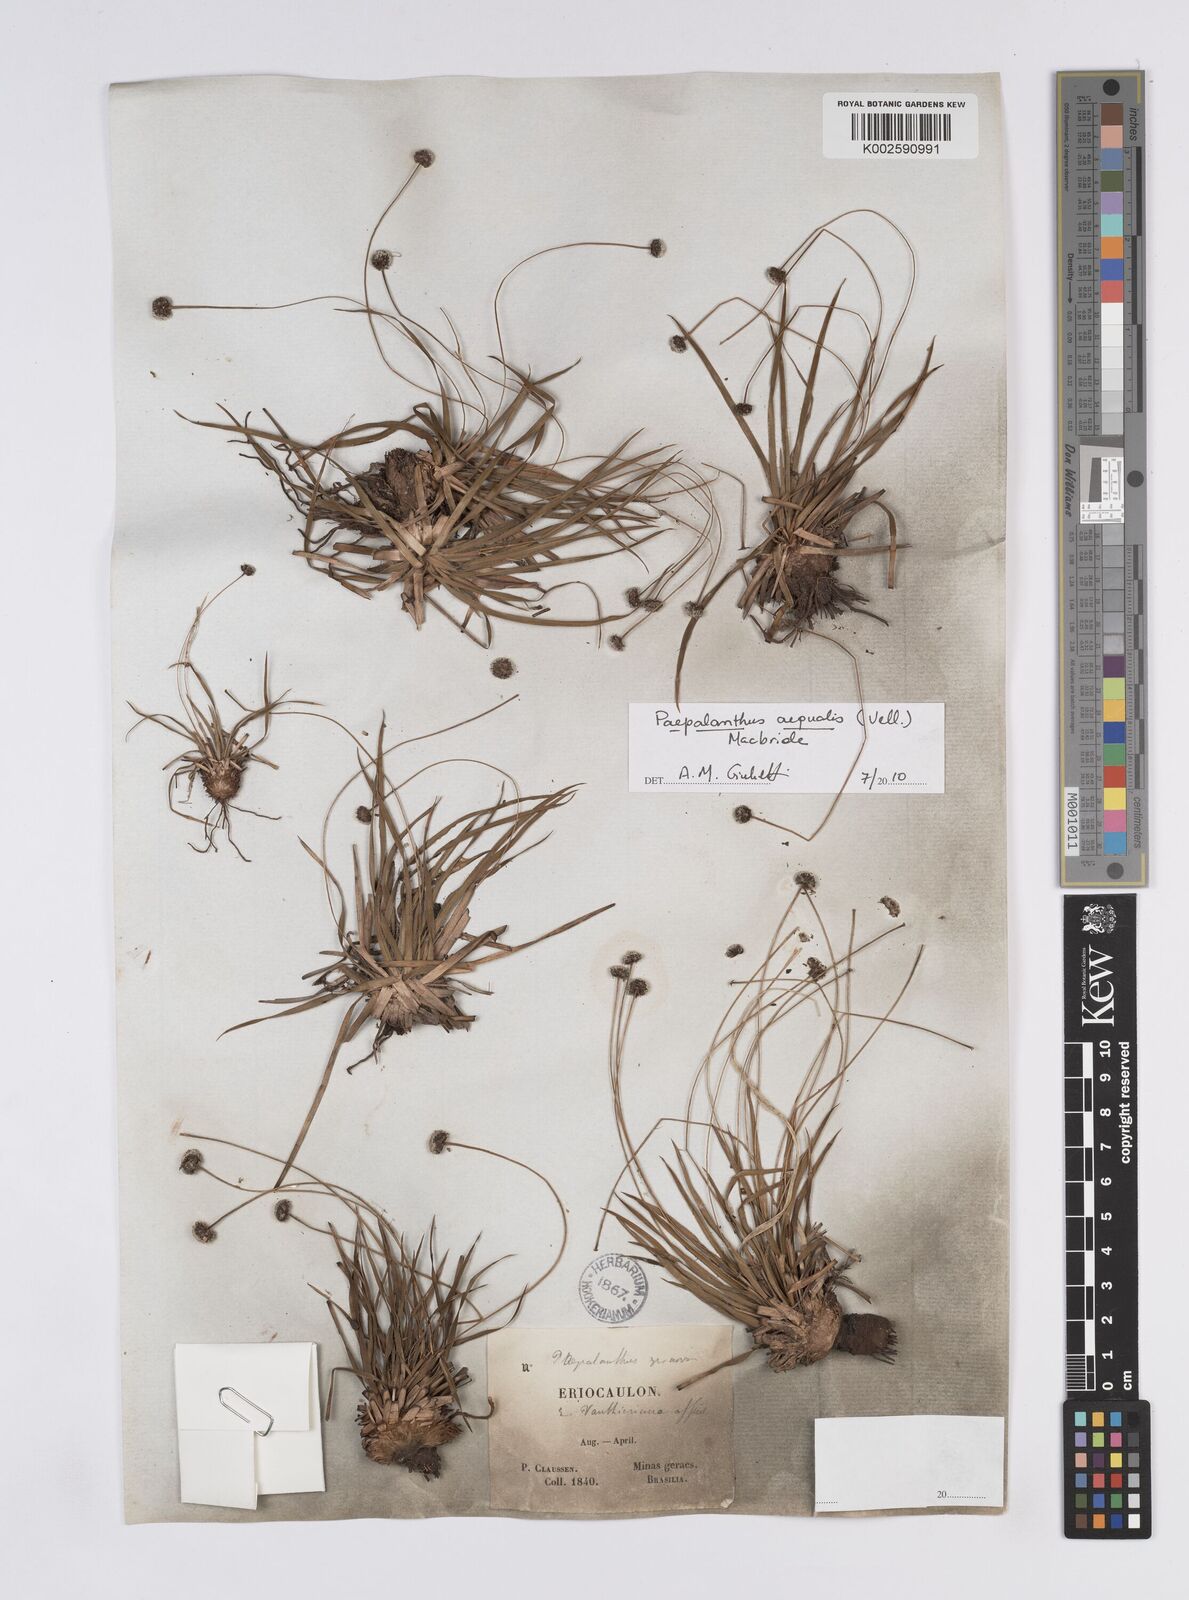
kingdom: Plantae
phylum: Tracheophyta
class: Liliopsida
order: Poales
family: Eriocaulaceae
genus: Paepalanthus
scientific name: Paepalanthus aequalis
